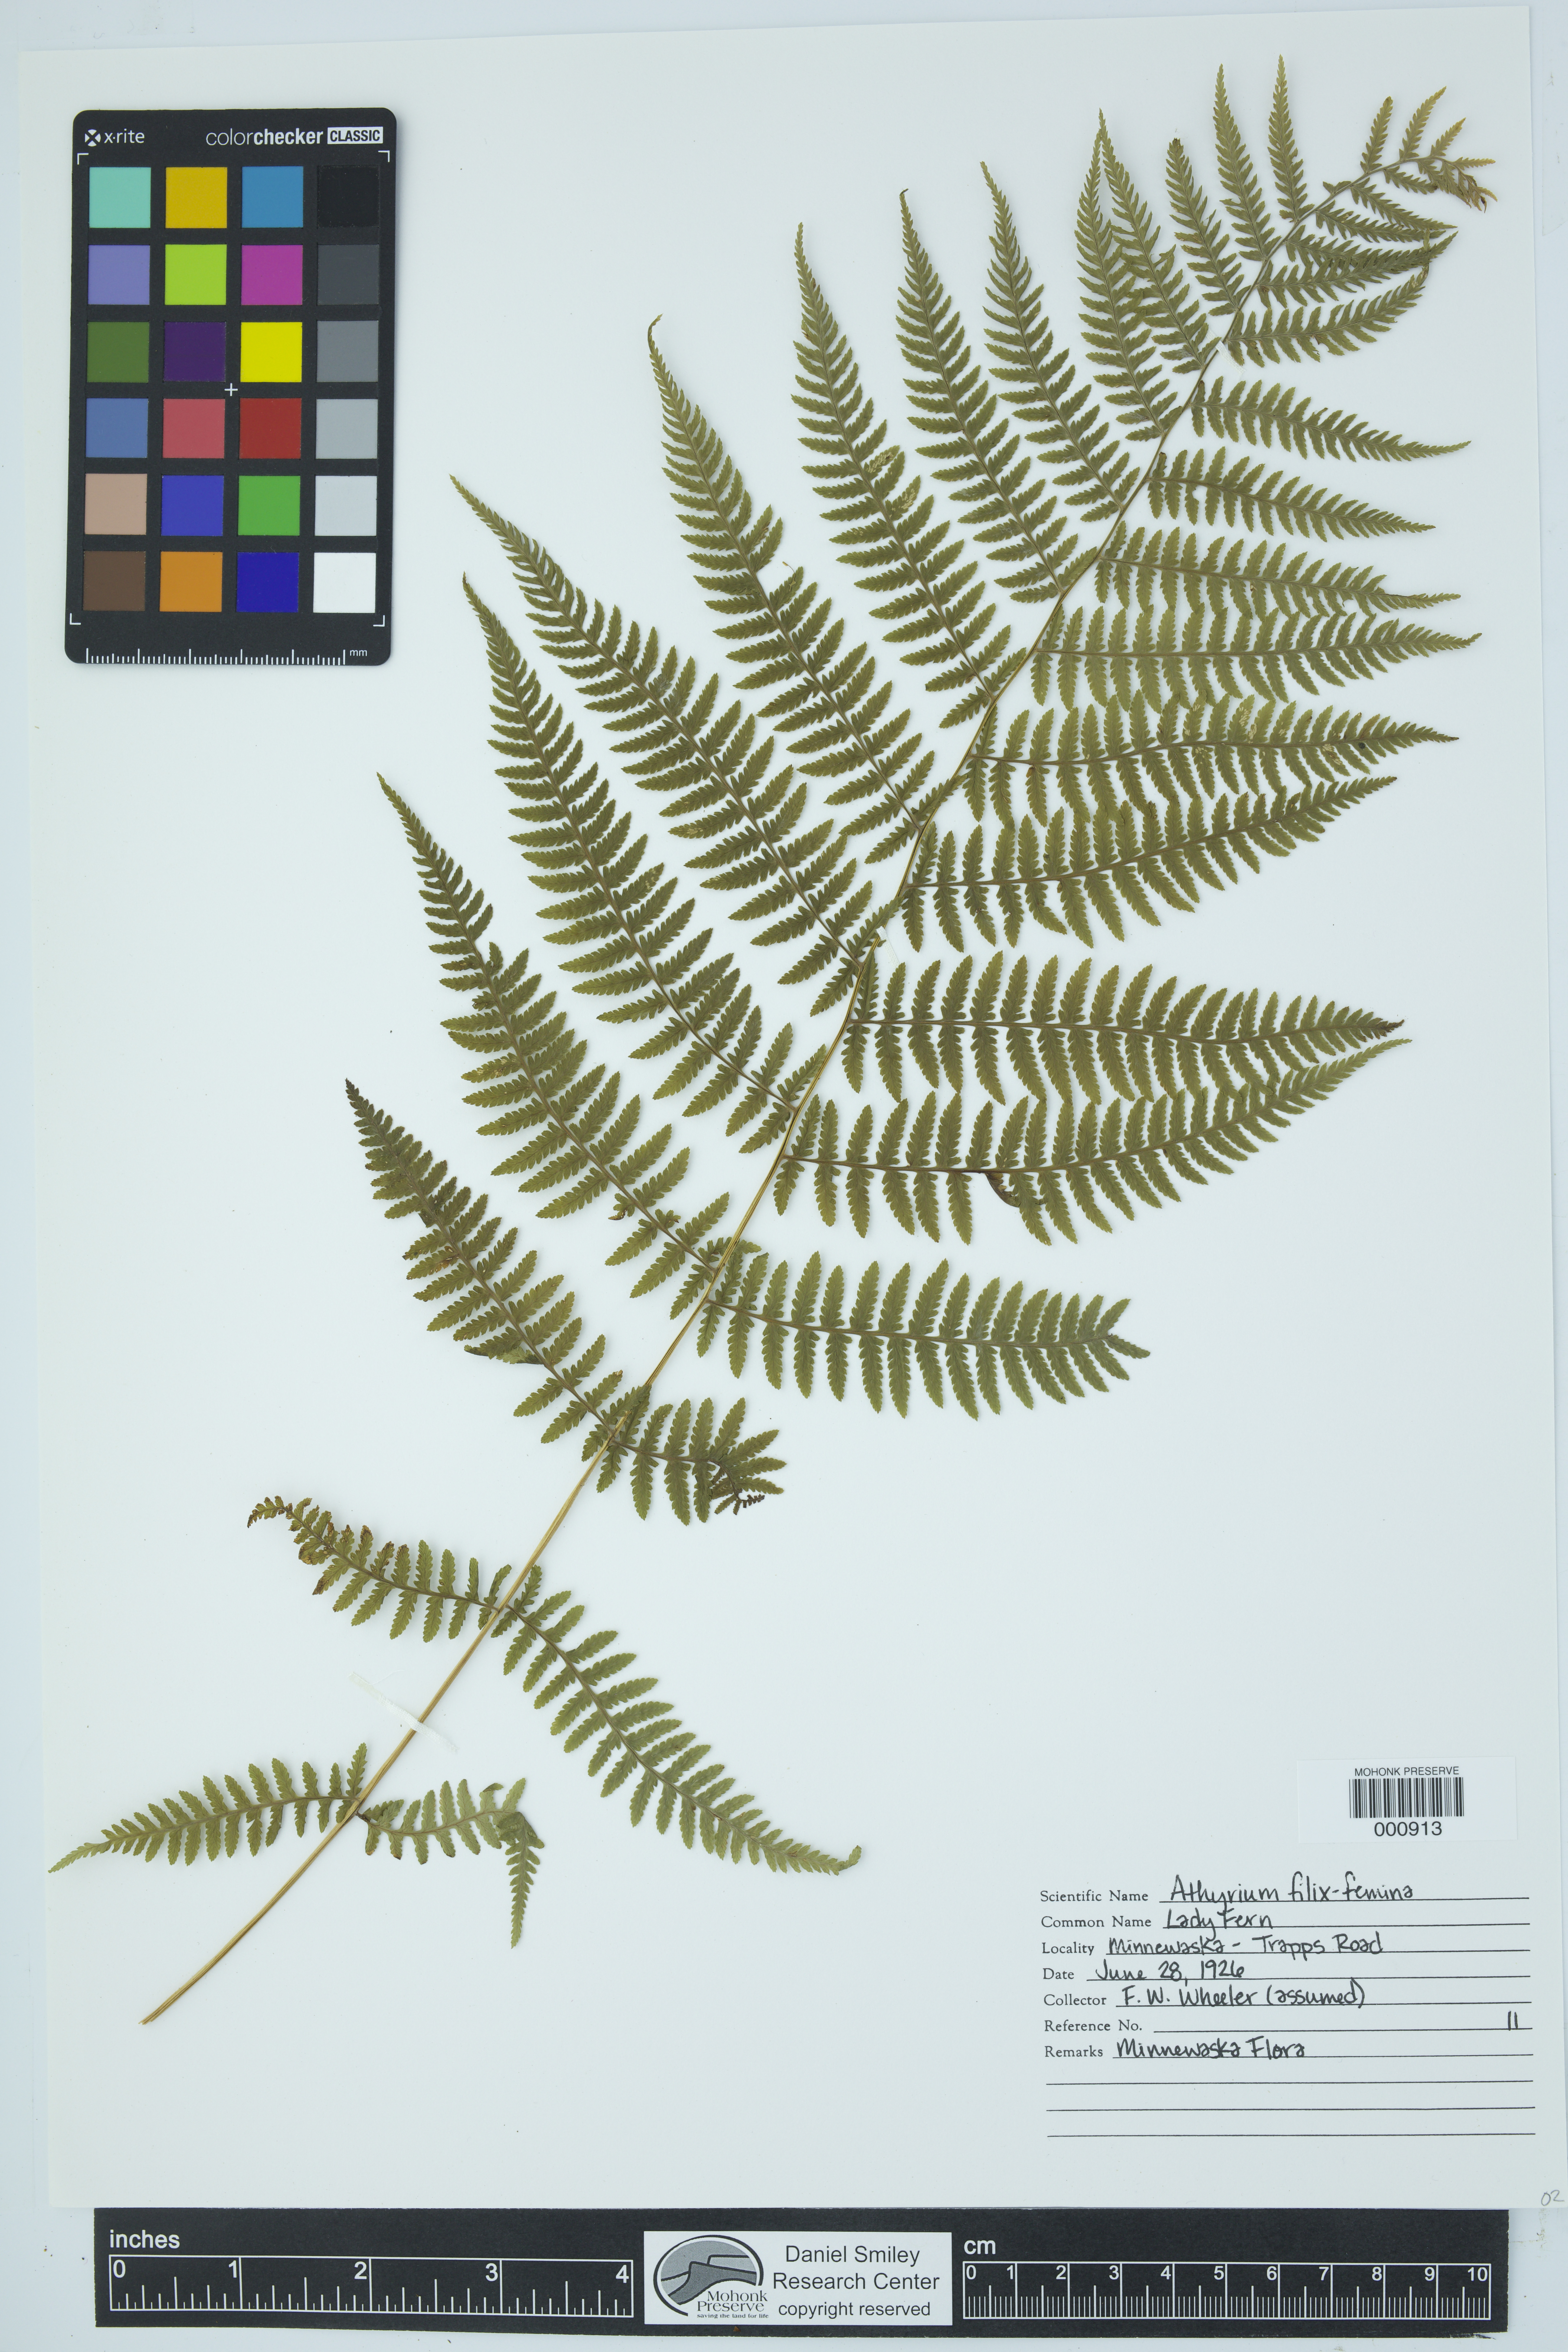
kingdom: Plantae
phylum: Tracheophyta
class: Polypodiopsida
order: Polypodiales
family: Athyriaceae
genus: Athyrium
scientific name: Athyrium filix-femina
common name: Lady fern
